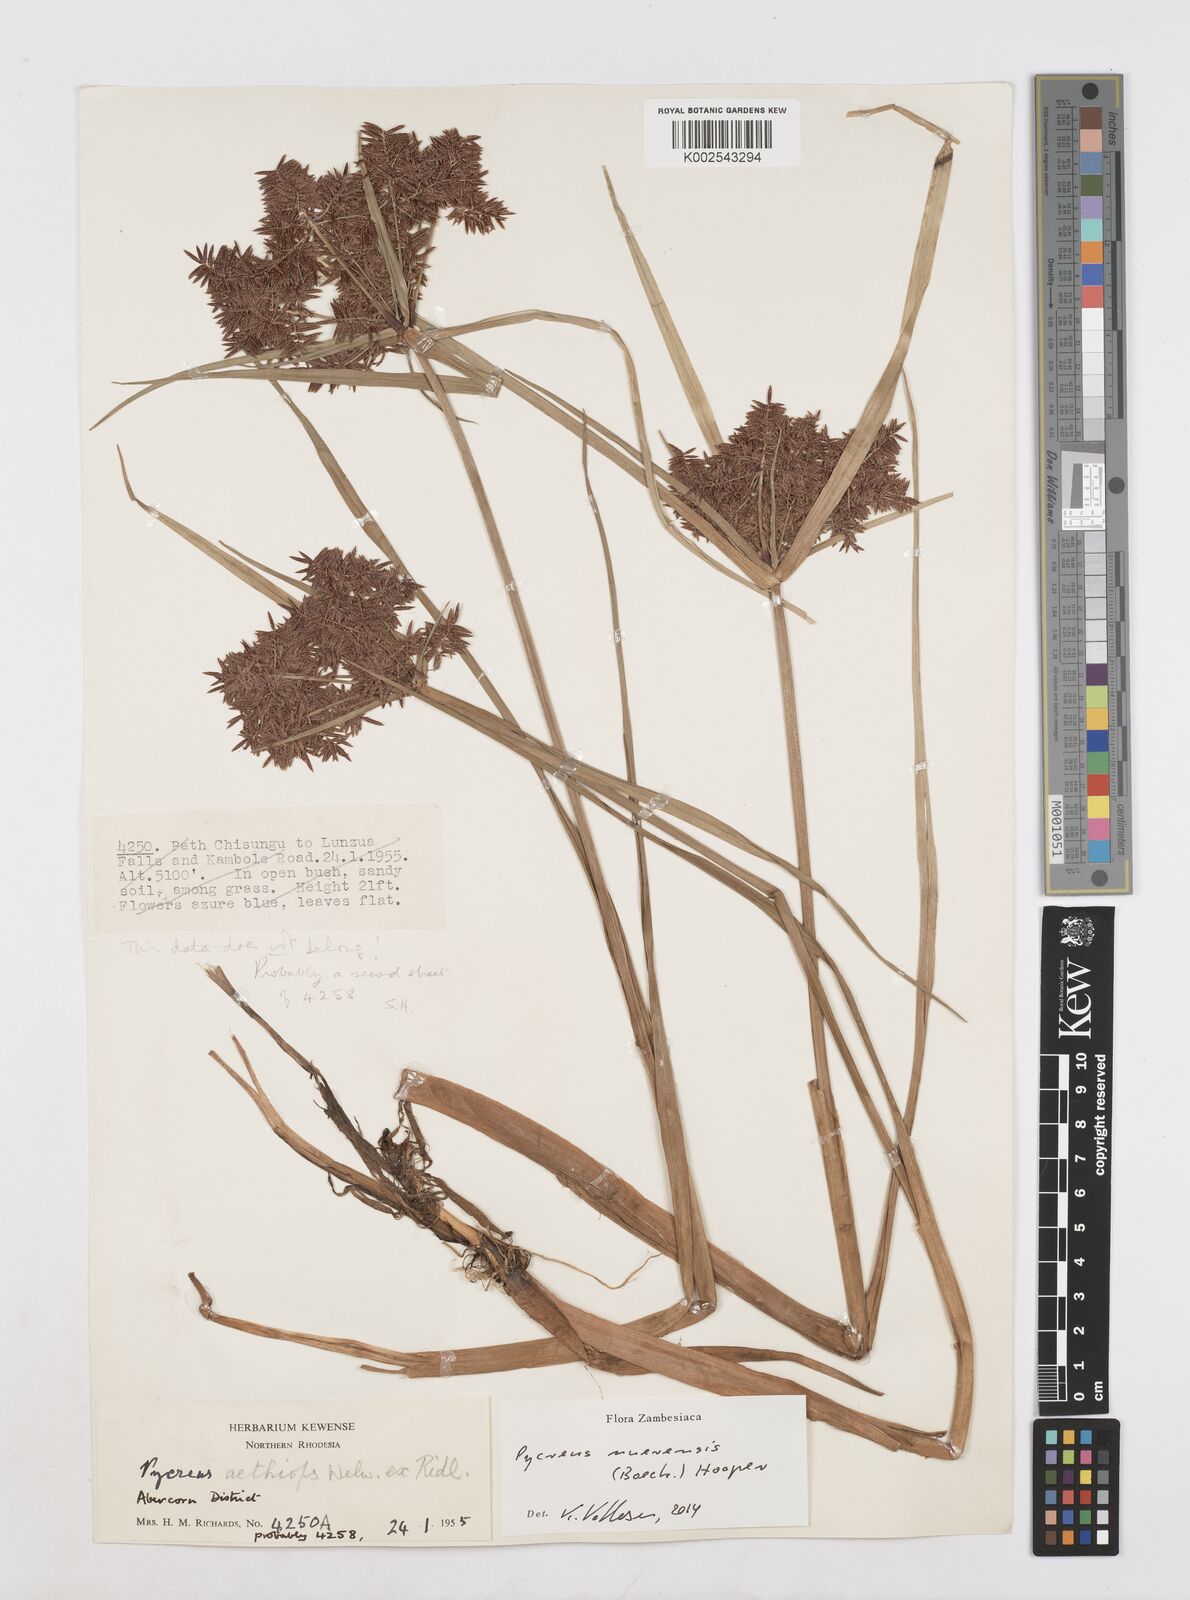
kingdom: Plantae
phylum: Tracheophyta
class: Liliopsida
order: Poales
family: Cyperaceae
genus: Cyperus
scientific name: Cyperus nuerensis
